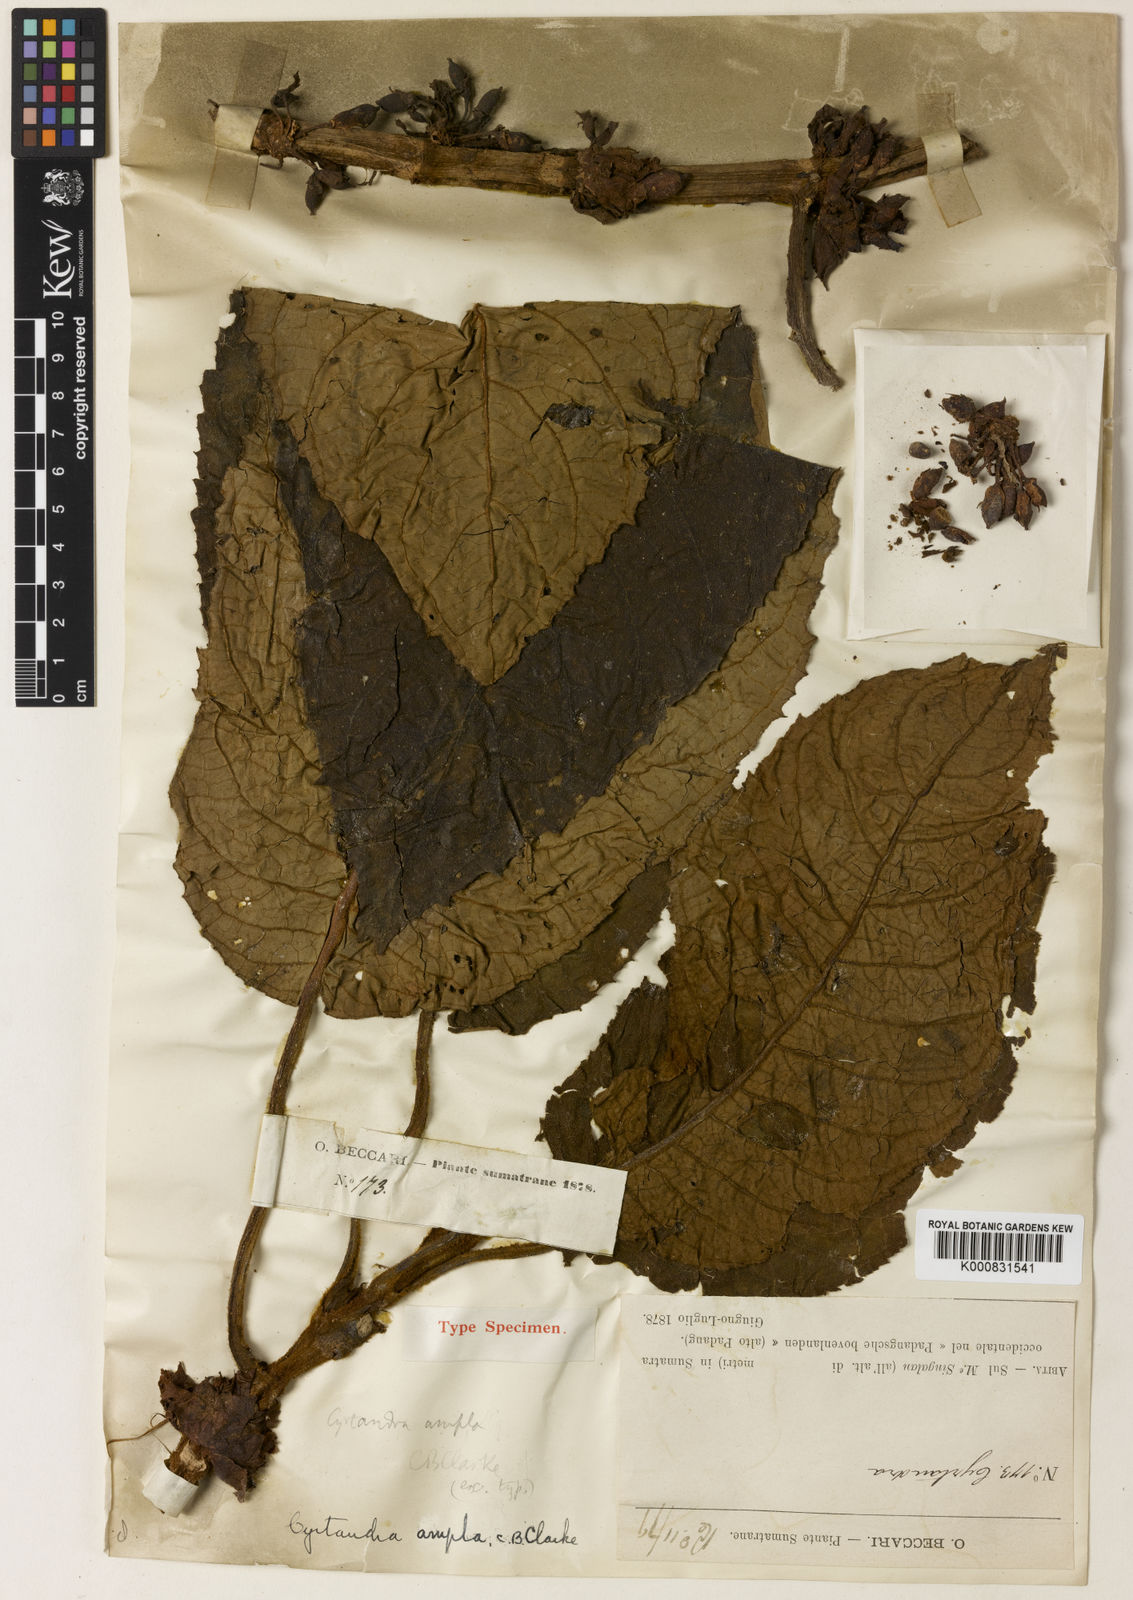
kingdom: Plantae
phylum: Tracheophyta
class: Magnoliopsida
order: Lamiales
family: Gesneriaceae
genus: Cyrtandra
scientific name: Cyrtandra ampla
